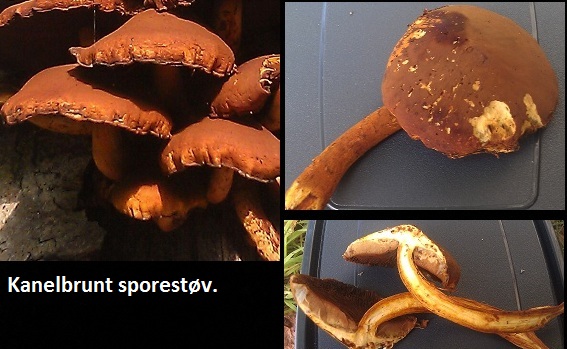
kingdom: Fungi
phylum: Basidiomycota
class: Agaricomycetes
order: Agaricales
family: Strophariaceae
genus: Pholiota
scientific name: Pholiota adiposa
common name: højtsiddende skælhat
